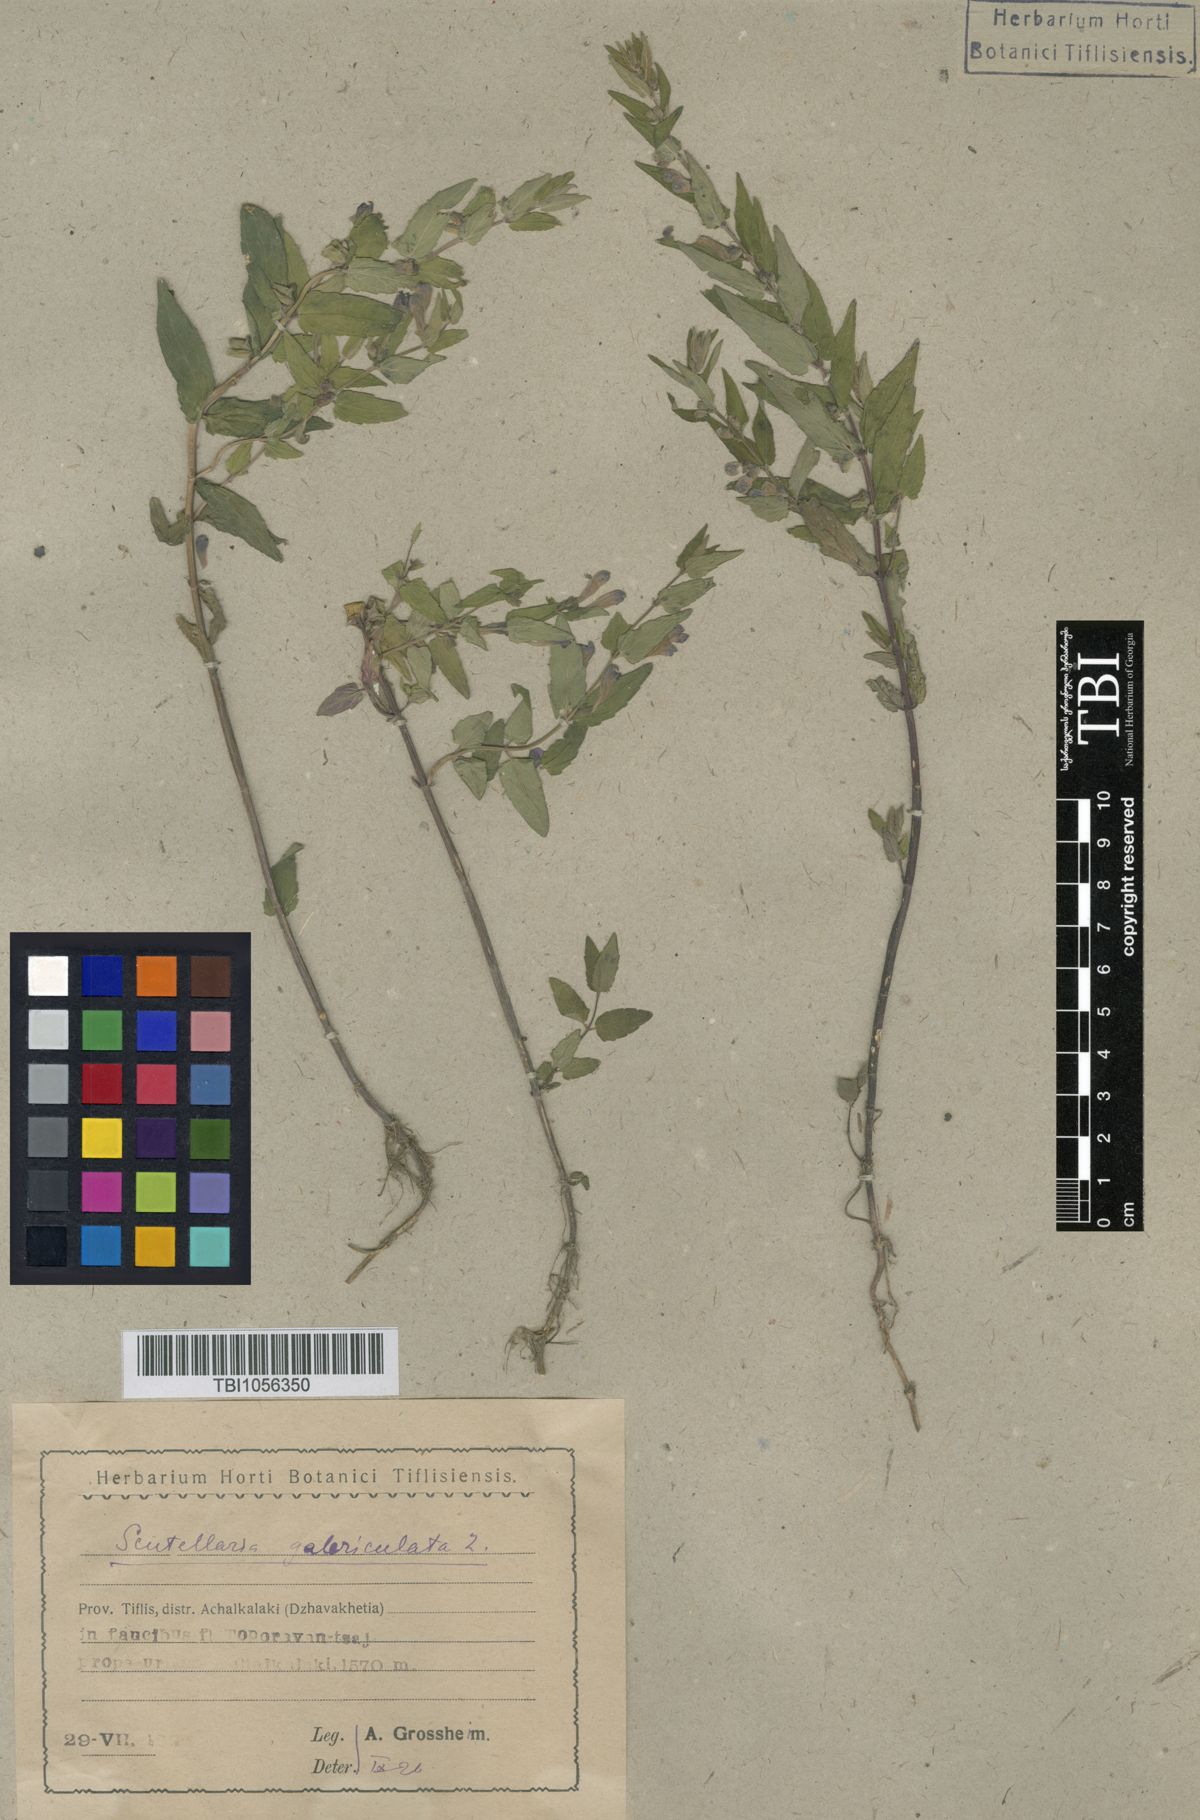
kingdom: Plantae
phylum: Tracheophyta
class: Magnoliopsida
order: Lamiales
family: Lamiaceae
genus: Scutellaria
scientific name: Scutellaria galericulata
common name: Skullcap
